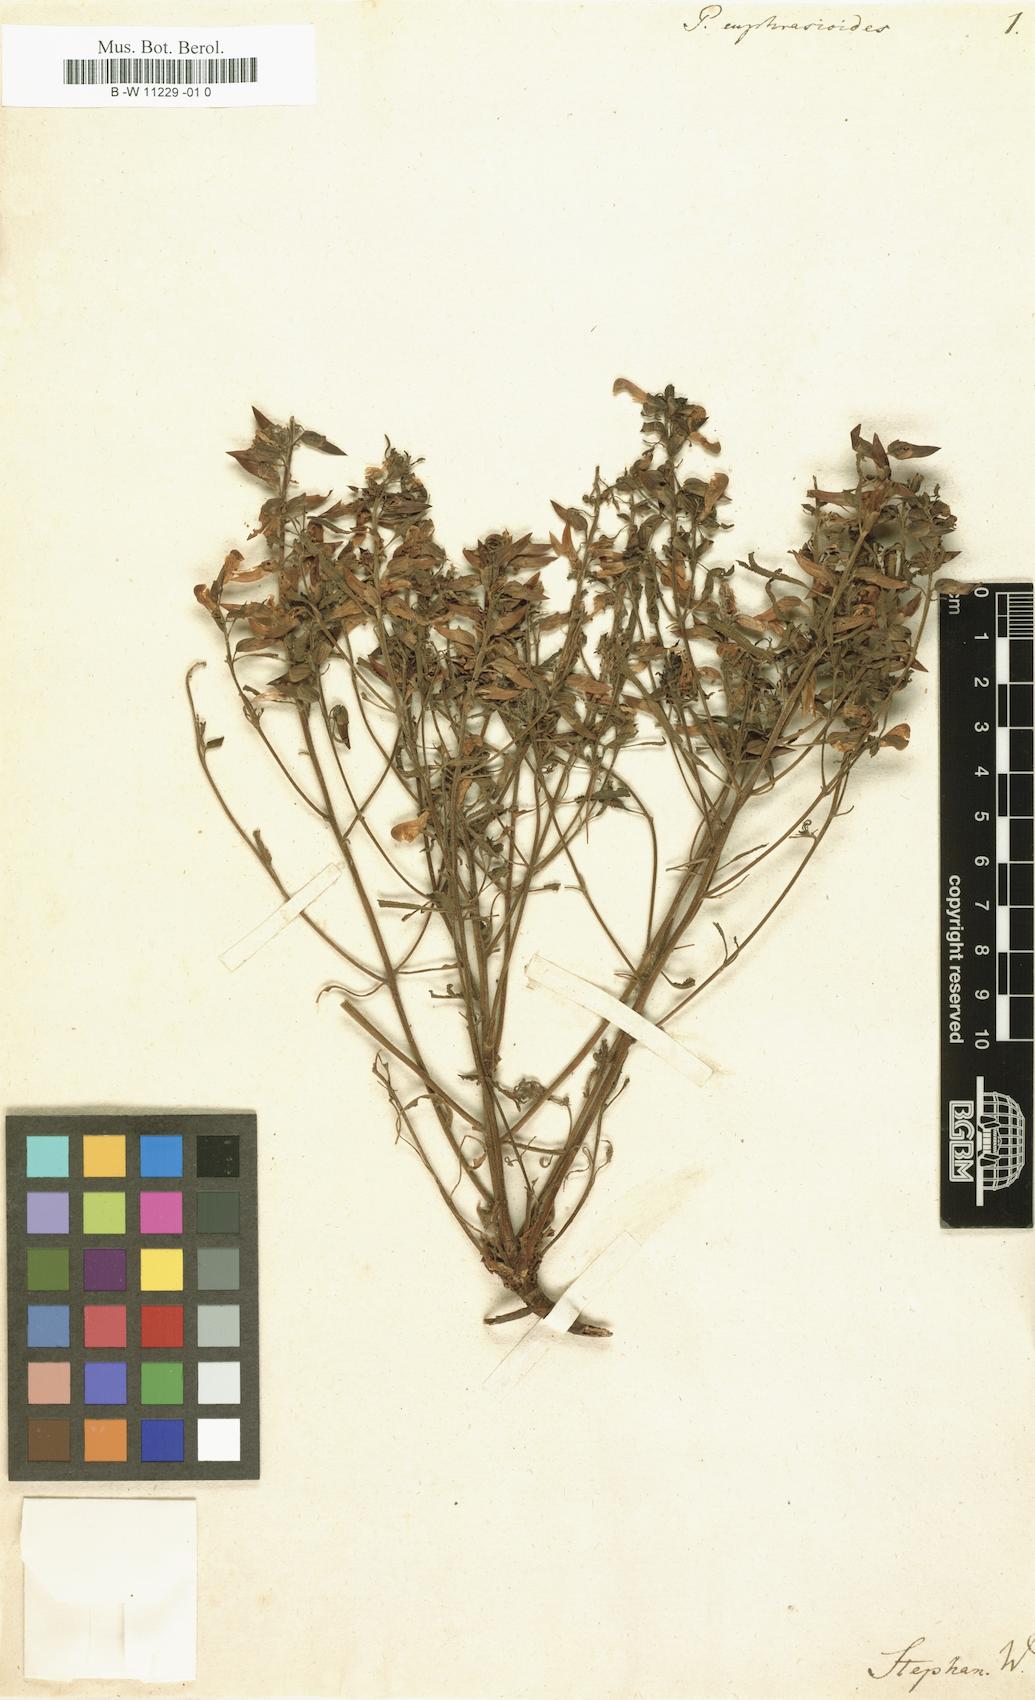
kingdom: Plantae
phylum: Tracheophyta
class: Magnoliopsida
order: Lamiales
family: Orobanchaceae
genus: Pedicularis
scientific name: Pedicularis labradorica
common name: Labrador lousewort
